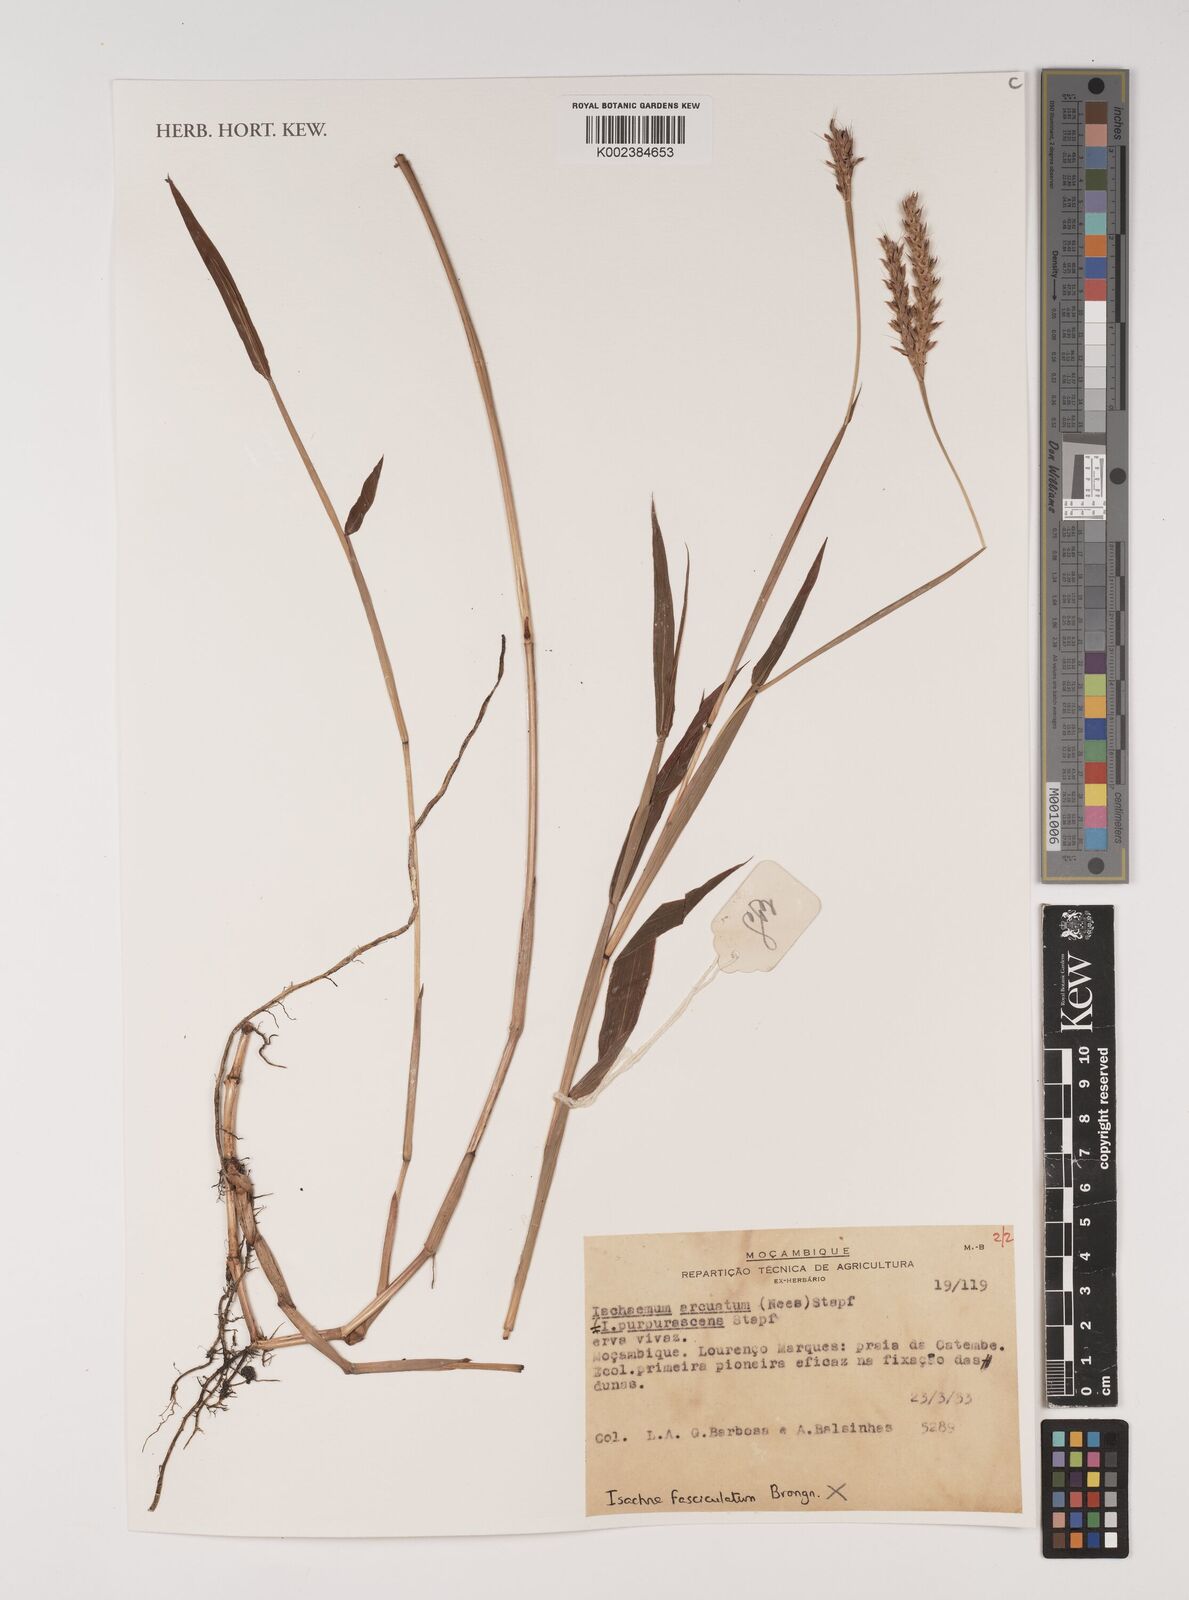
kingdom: Plantae
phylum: Tracheophyta
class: Liliopsida
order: Poales
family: Poaceae
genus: Ischaemum
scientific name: Ischaemum
